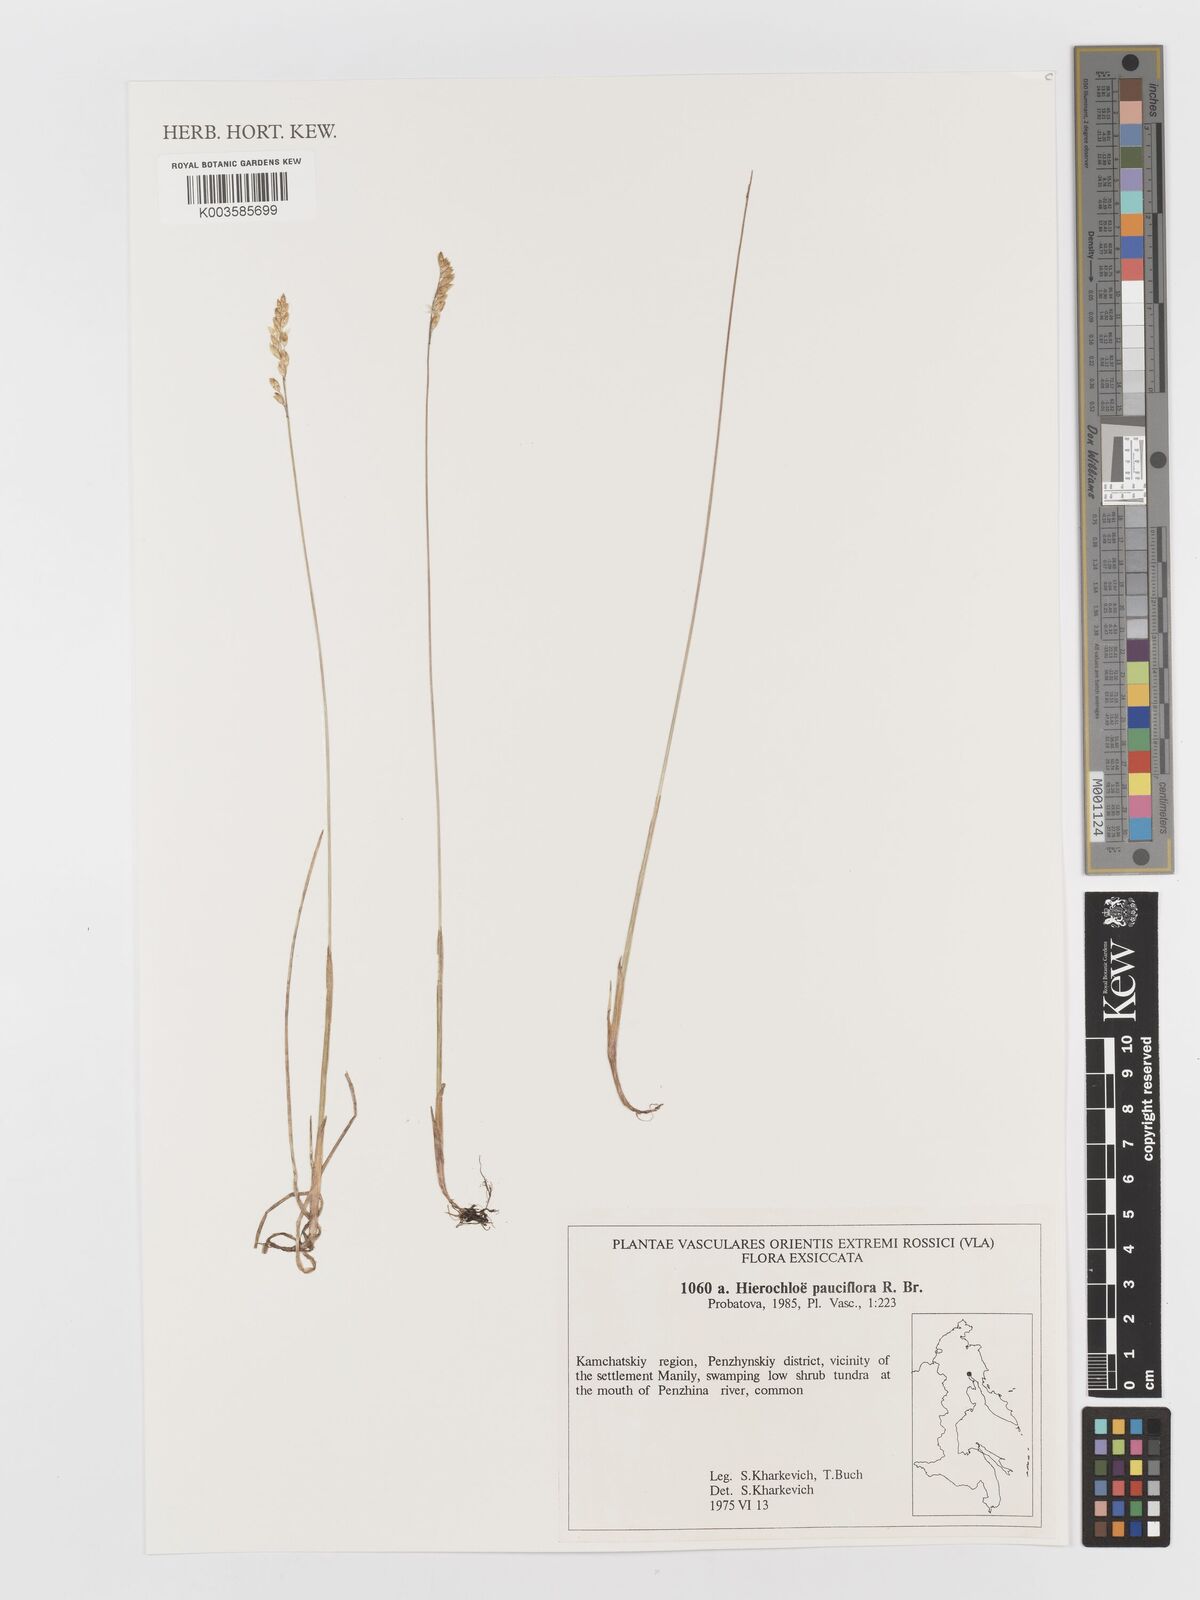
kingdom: Plantae
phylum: Tracheophyta
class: Liliopsida
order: Poales
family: Poaceae
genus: Anthoxanthum
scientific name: Anthoxanthum arcticum
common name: Arctic sweetgrass
